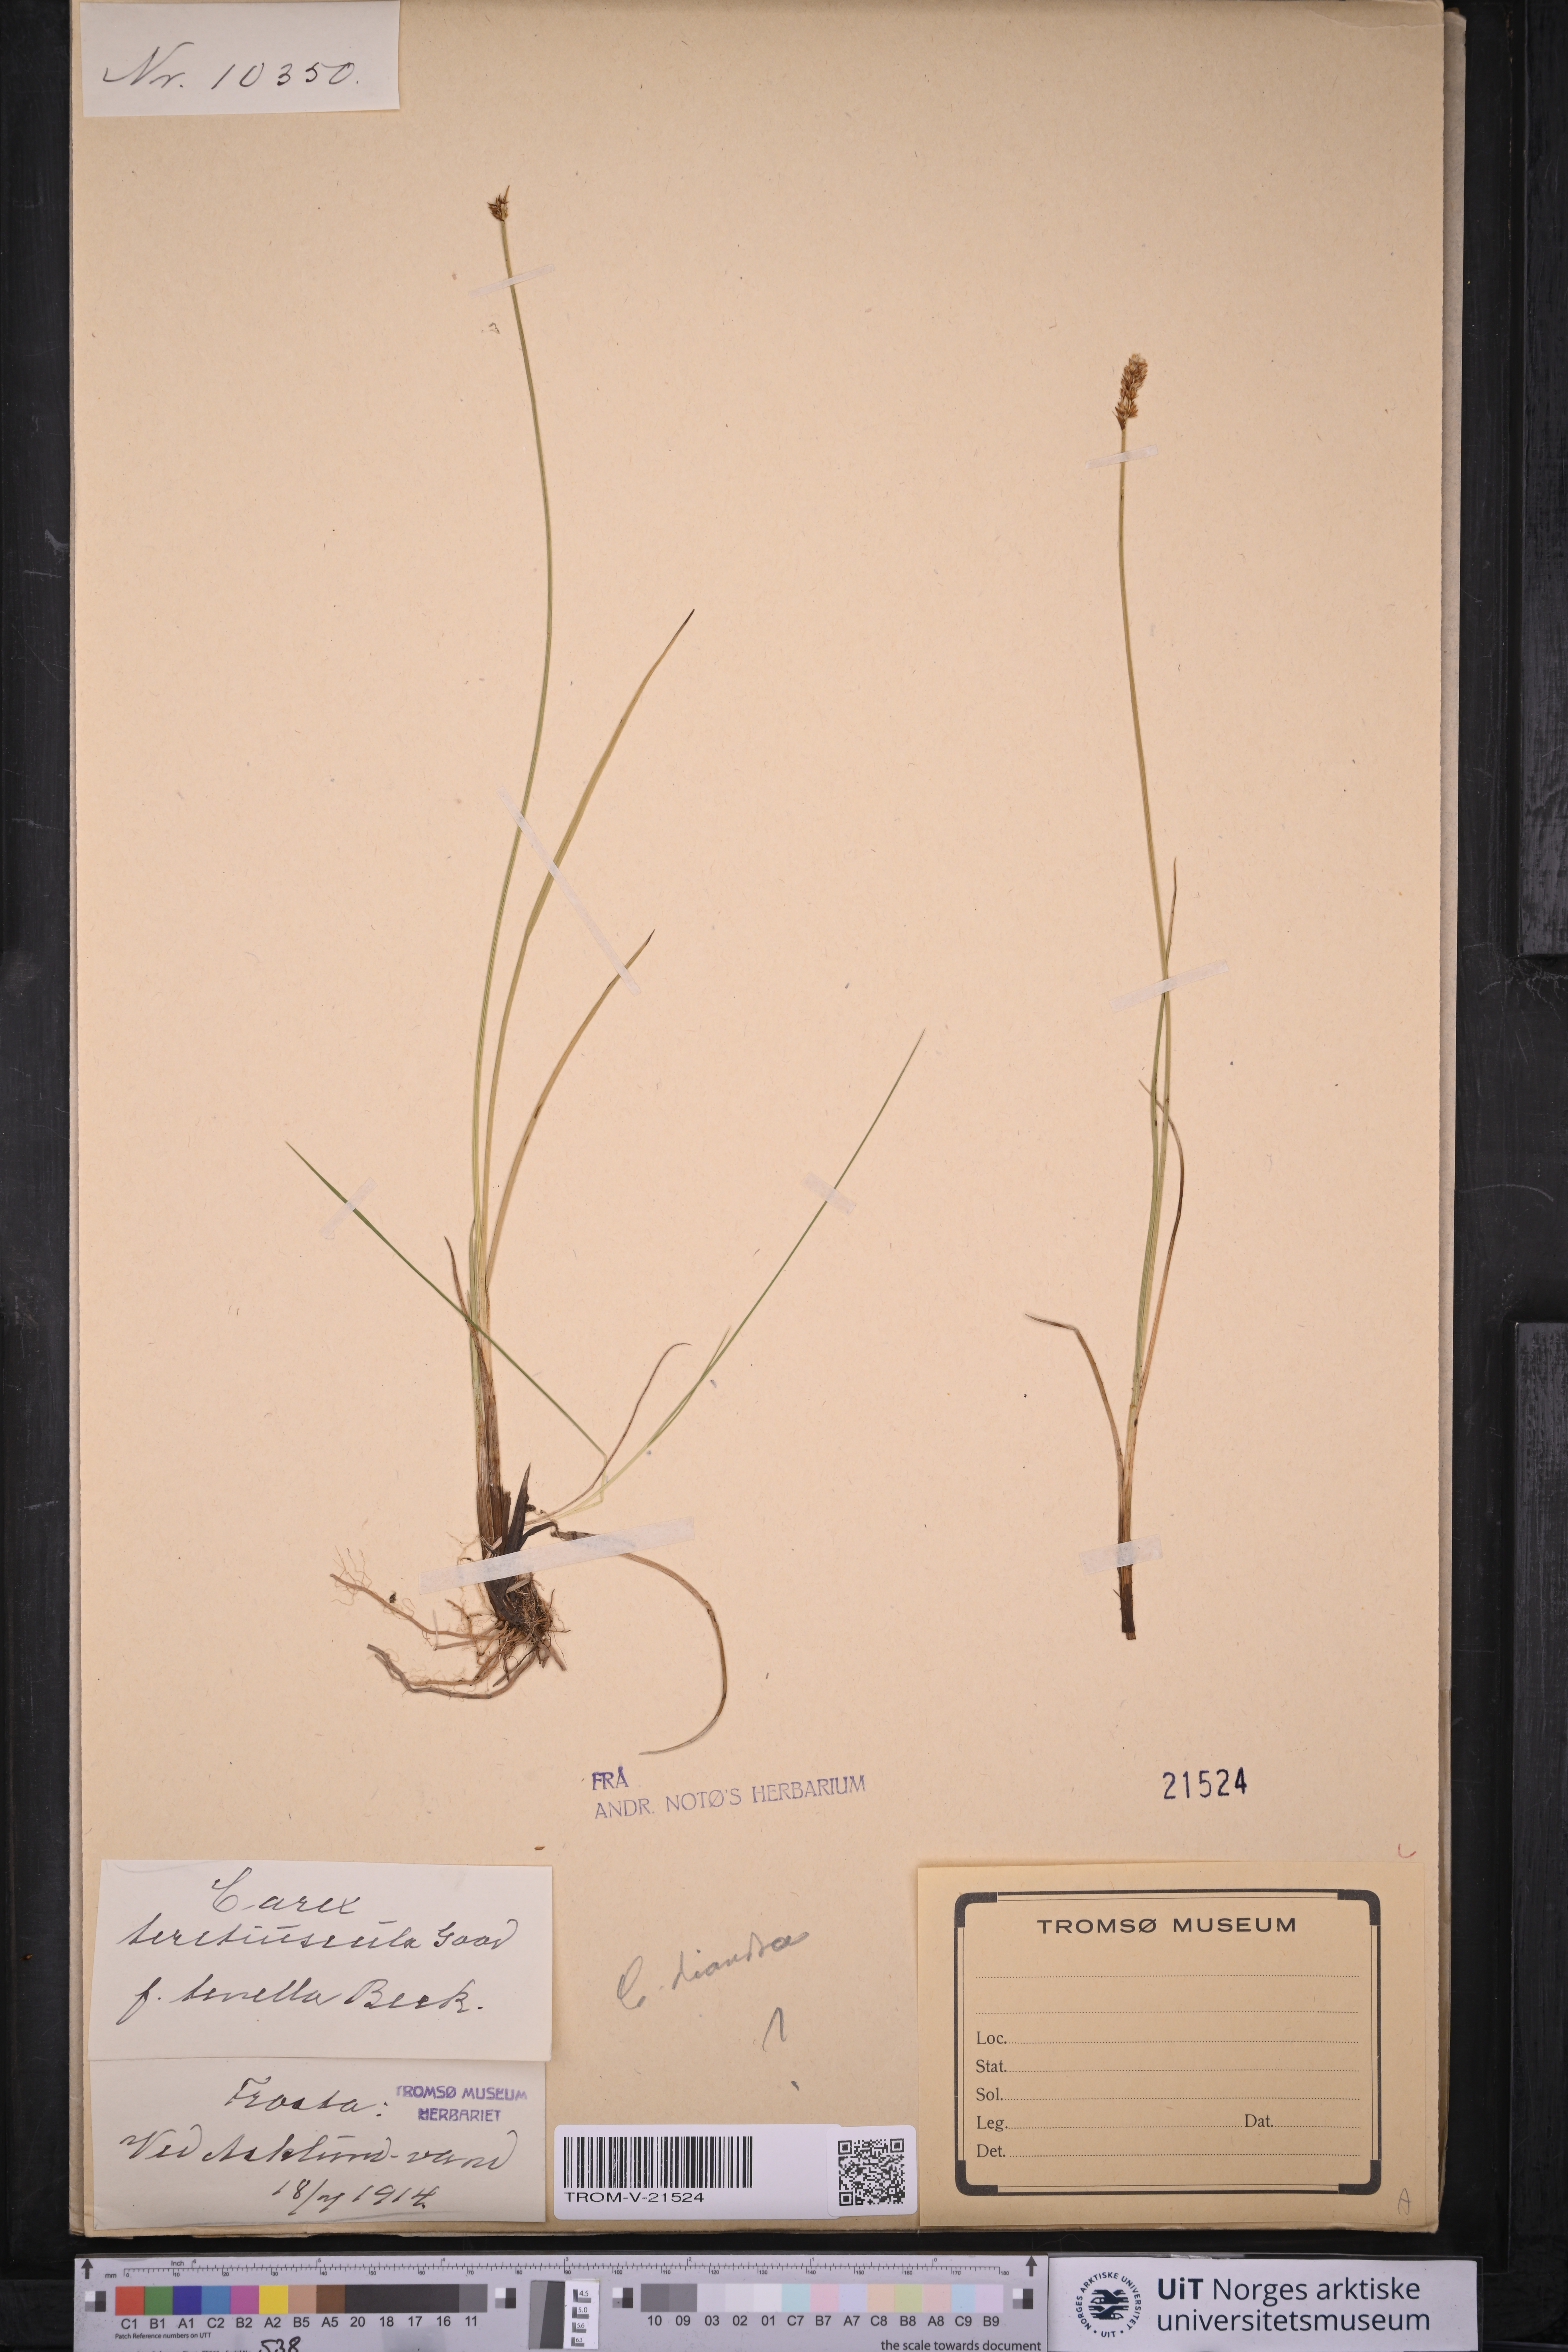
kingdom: Plantae
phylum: Tracheophyta
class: Liliopsida
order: Poales
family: Cyperaceae
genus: Carex
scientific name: Carex diandra
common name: Lesser tussock-sedge
